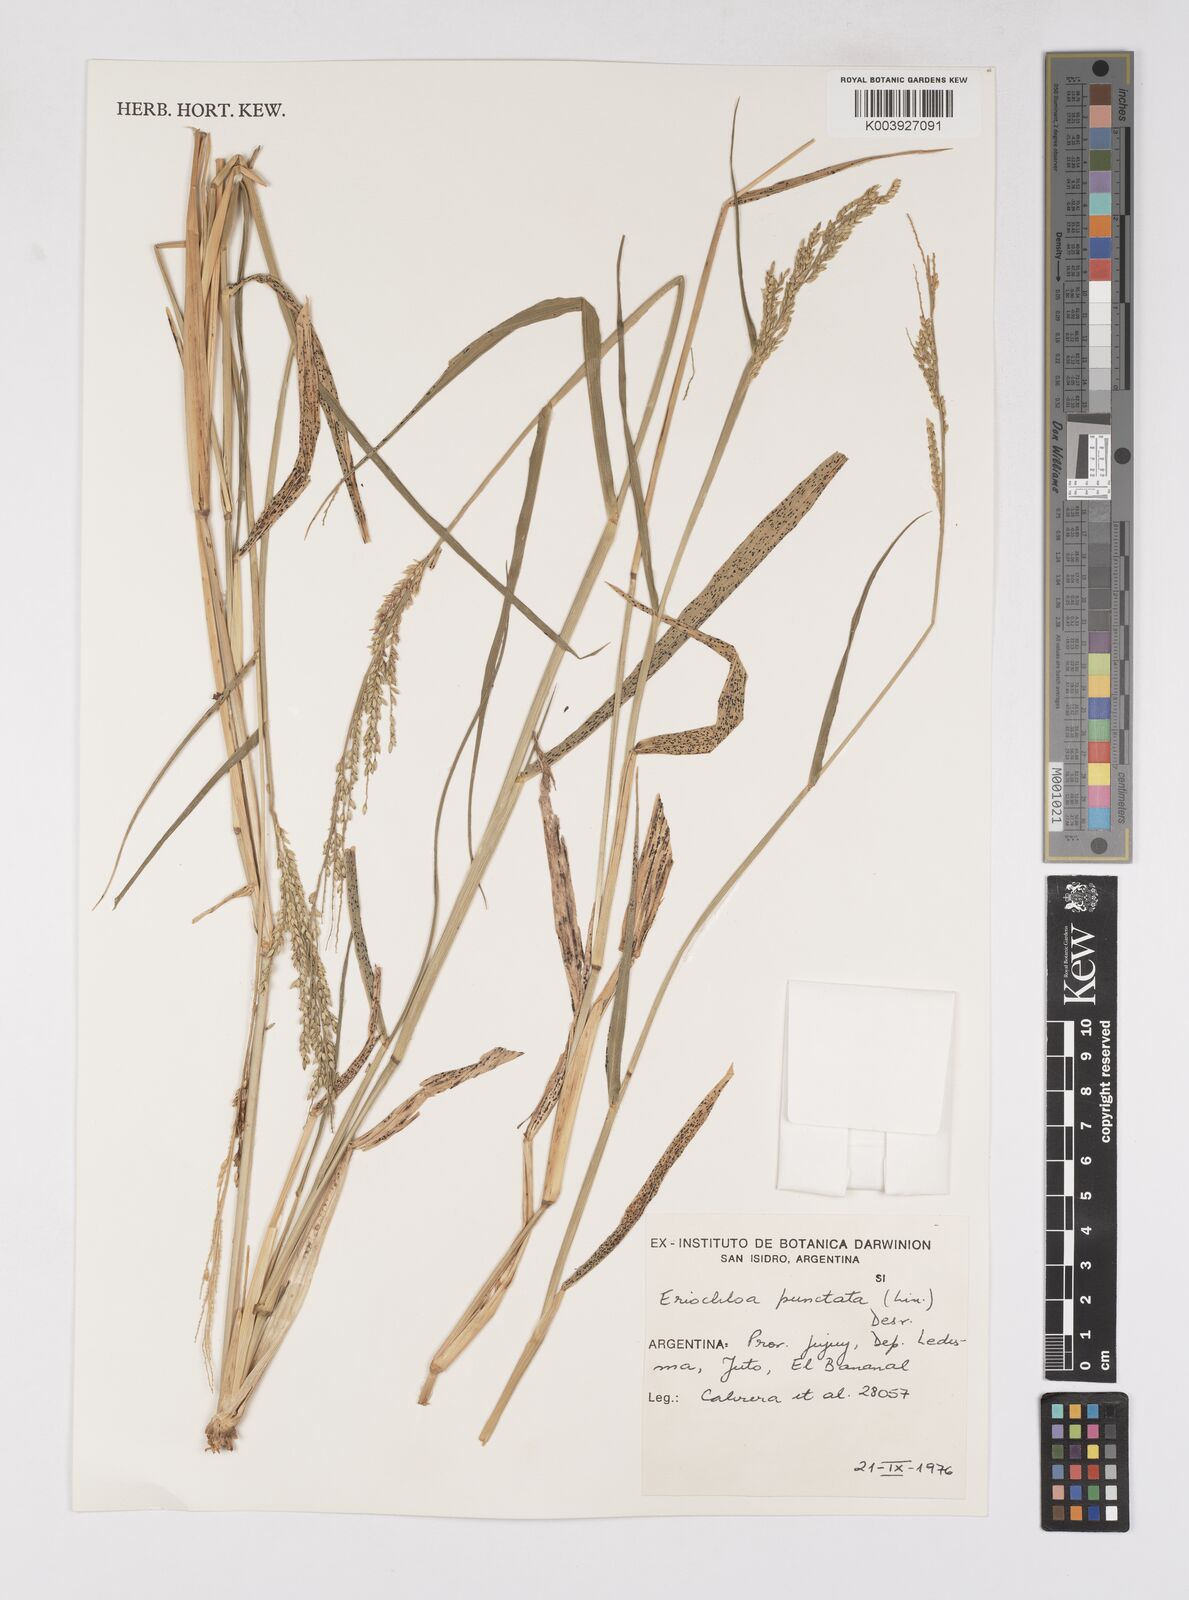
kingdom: Plantae
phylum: Tracheophyta
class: Liliopsida
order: Poales
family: Poaceae
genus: Eriochloa
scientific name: Eriochloa punctata
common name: Louisiana cupgrass
